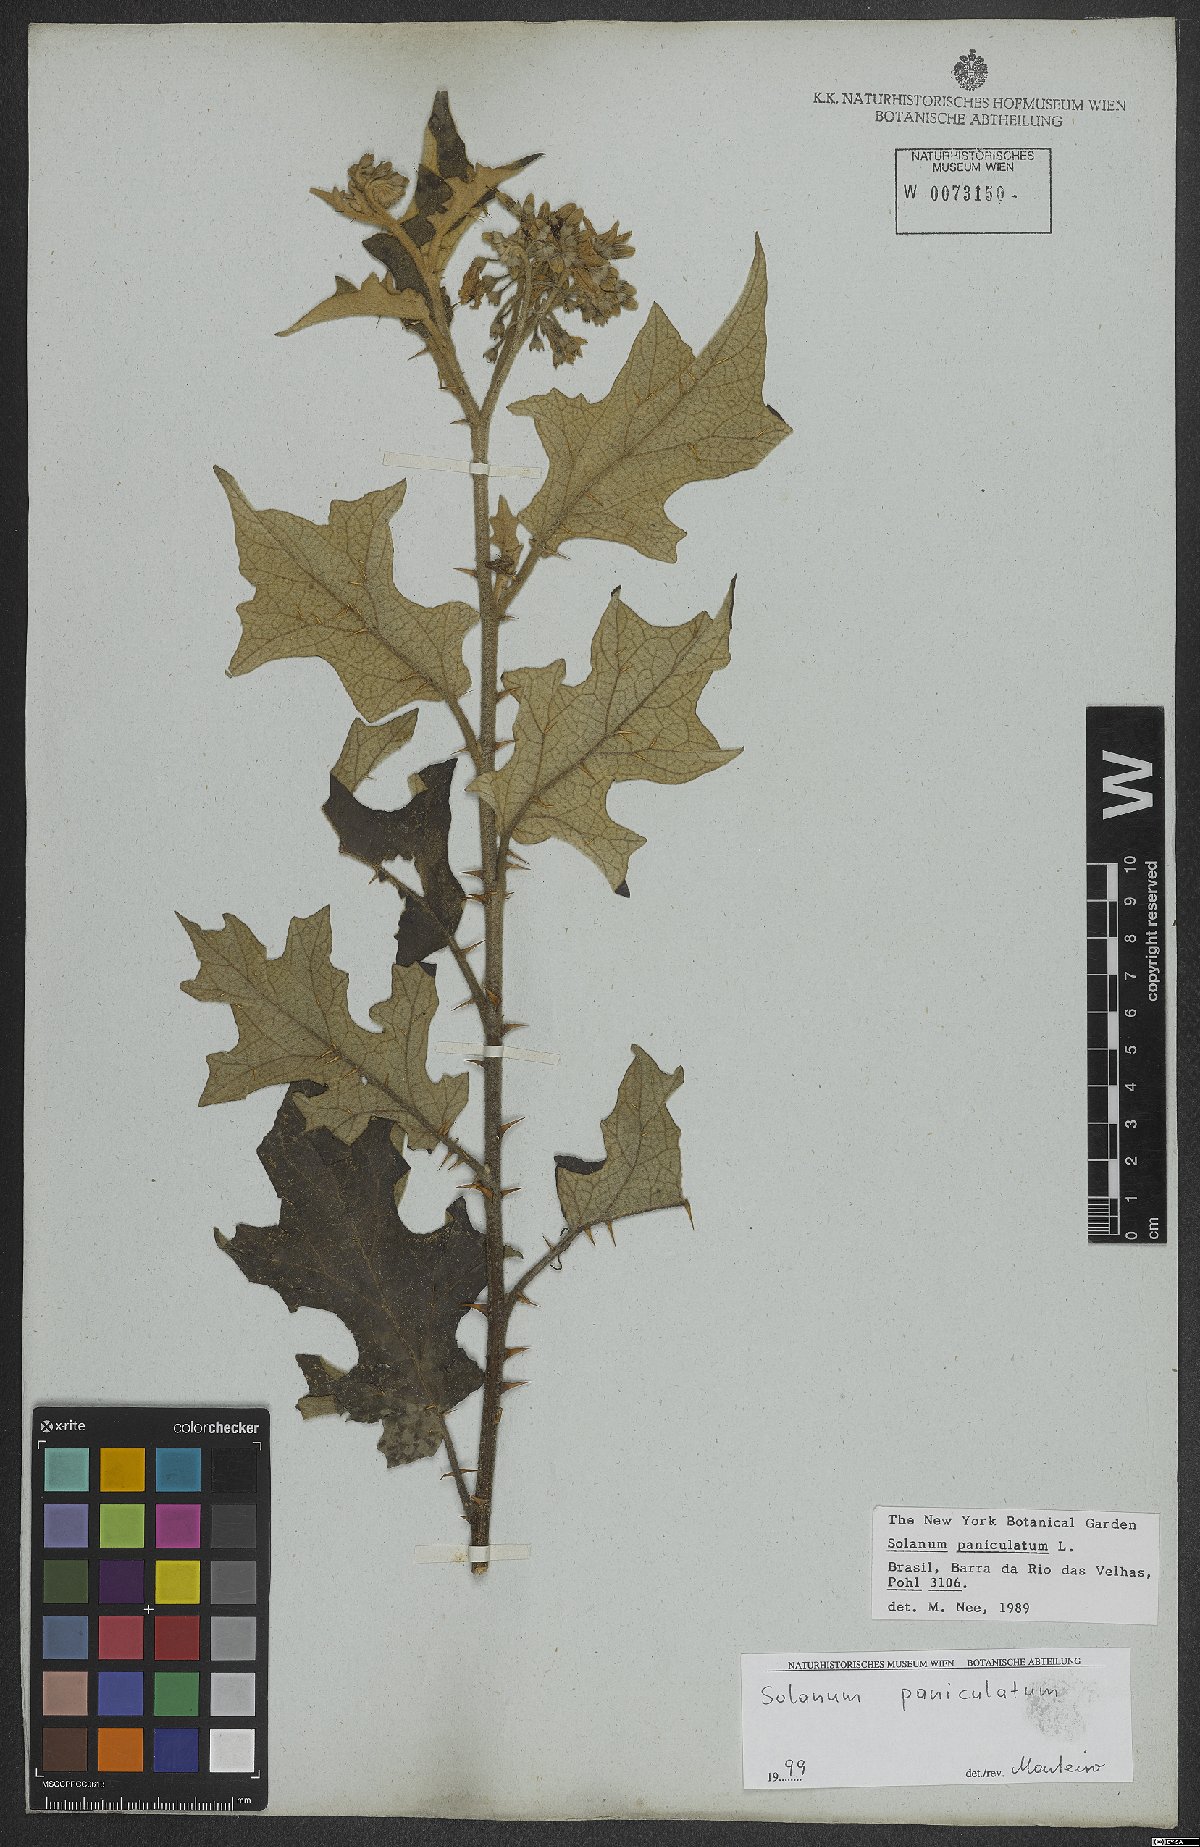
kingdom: Plantae
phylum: Tracheophyta
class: Magnoliopsida
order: Solanales
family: Solanaceae
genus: Solanum
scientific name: Solanum paniculatum
